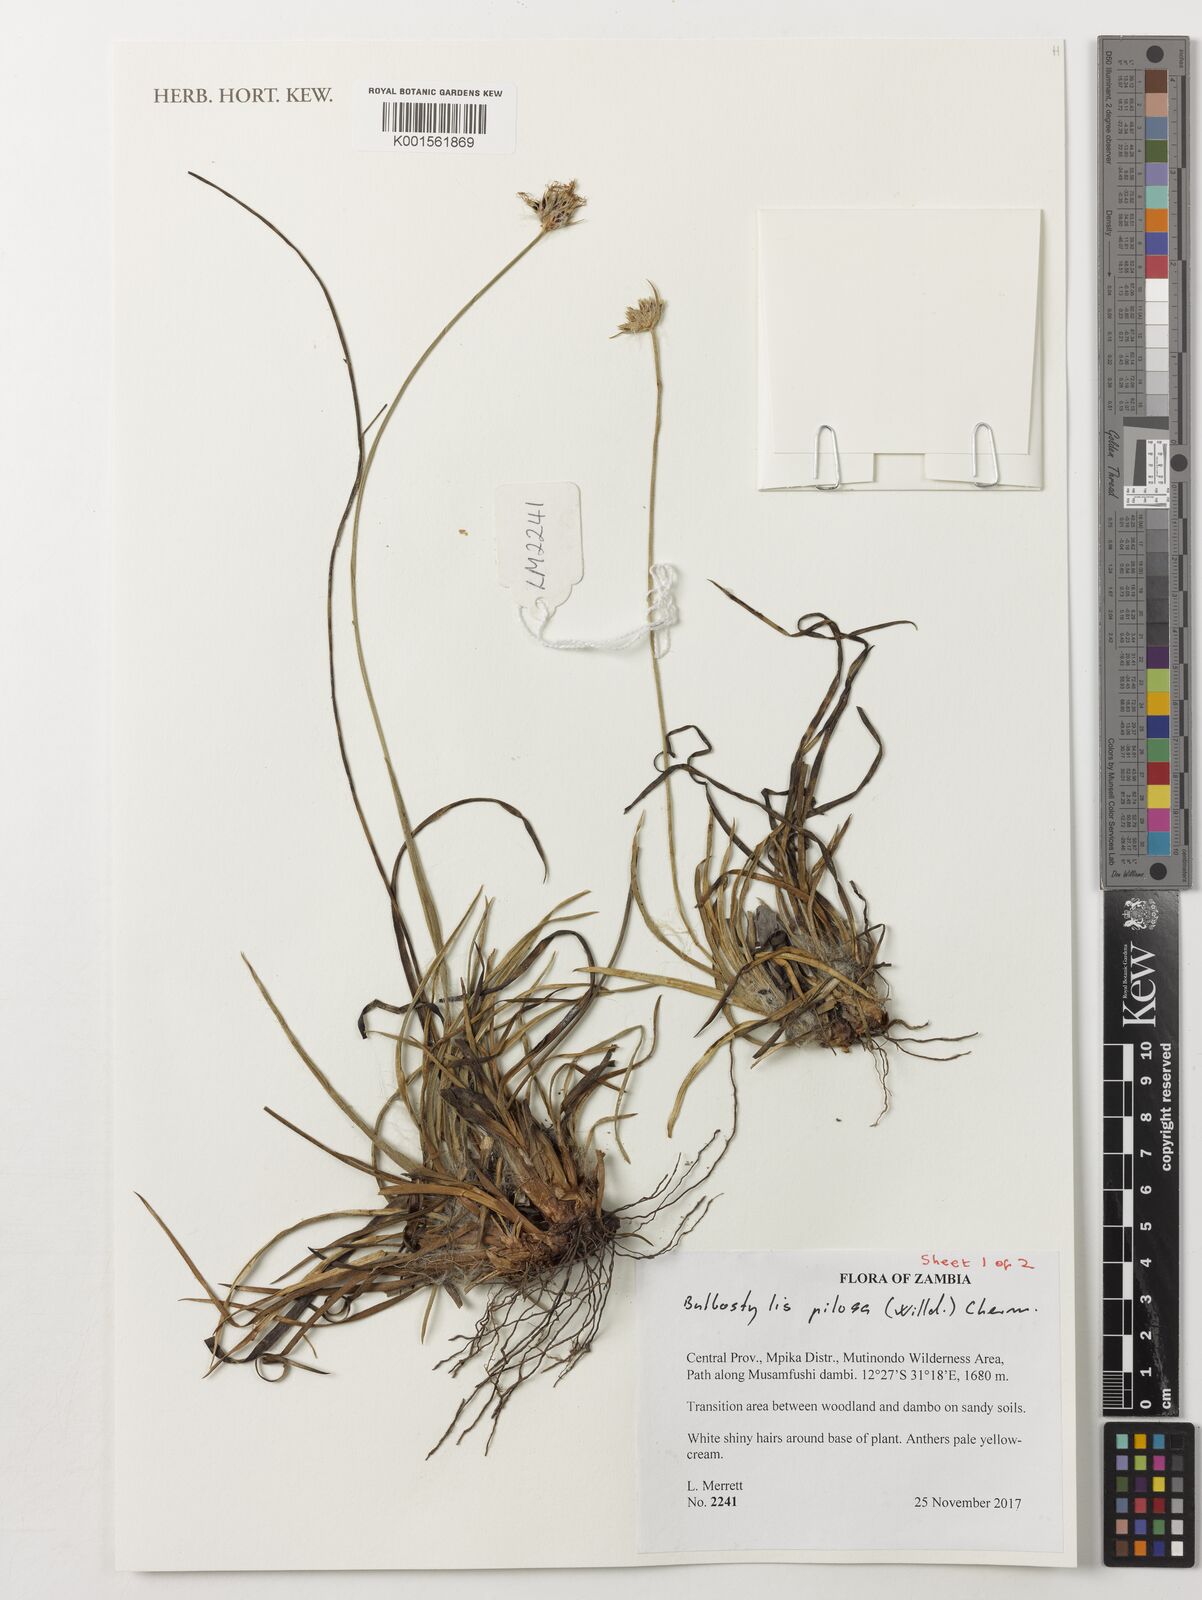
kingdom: Plantae
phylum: Tracheophyta
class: Liliopsida
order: Poales
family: Cyperaceae
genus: Bulbostylis
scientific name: Bulbostylis pilosa
